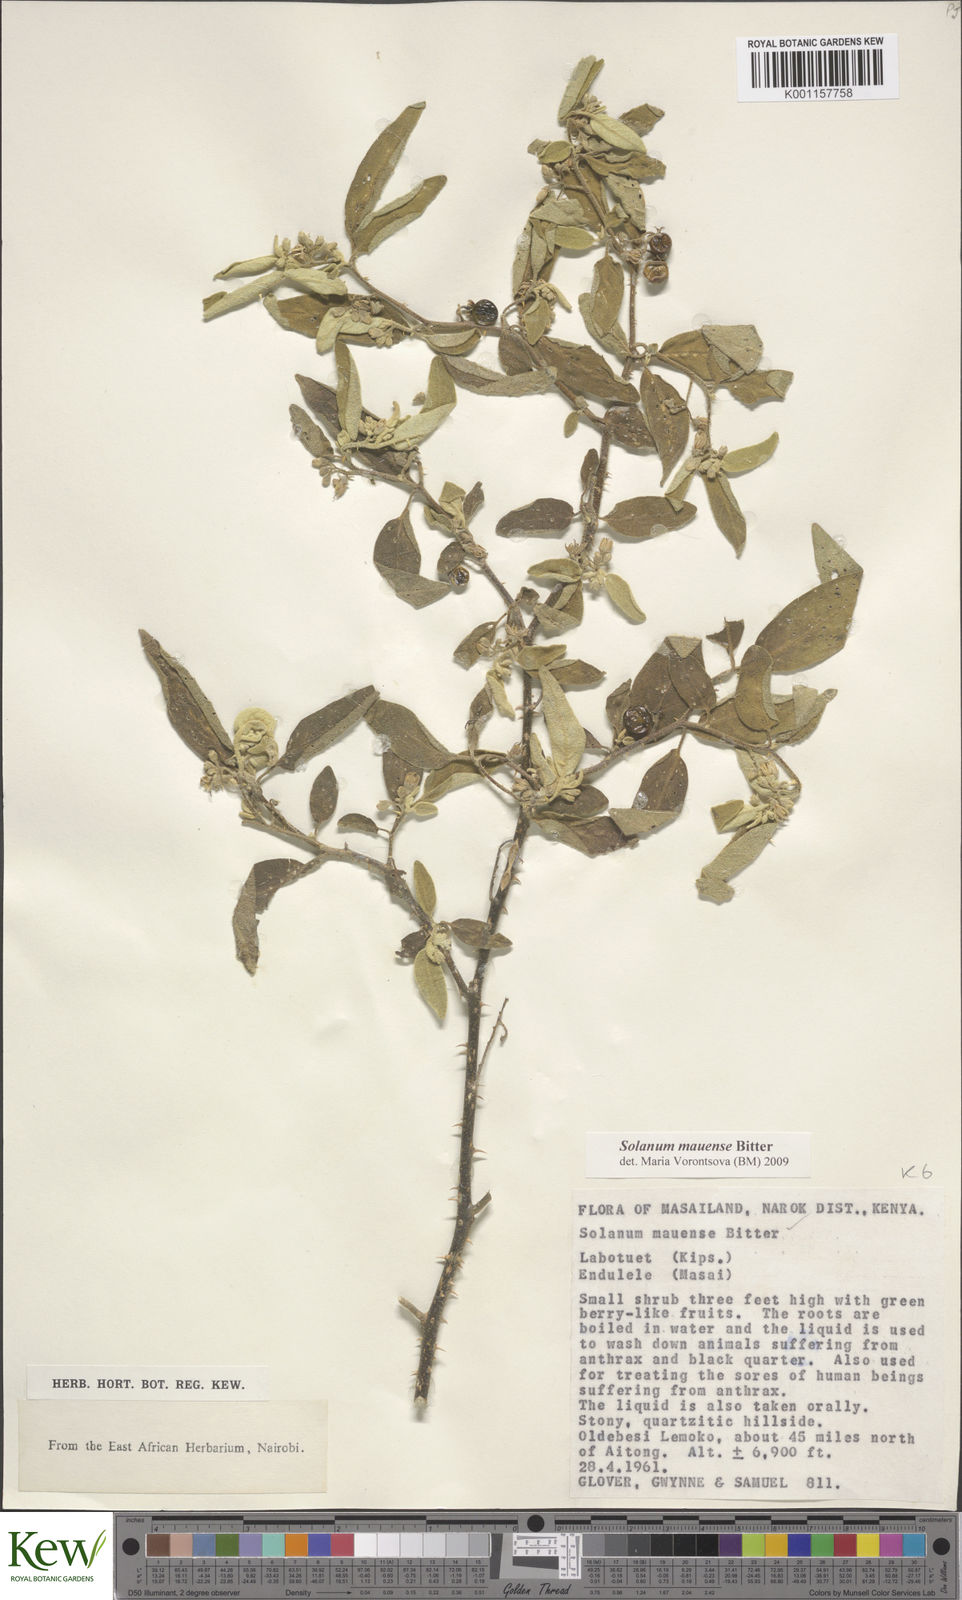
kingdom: Plantae
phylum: Tracheophyta
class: Magnoliopsida
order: Solanales
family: Solanaceae
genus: Solanum
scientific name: Solanum mauense
